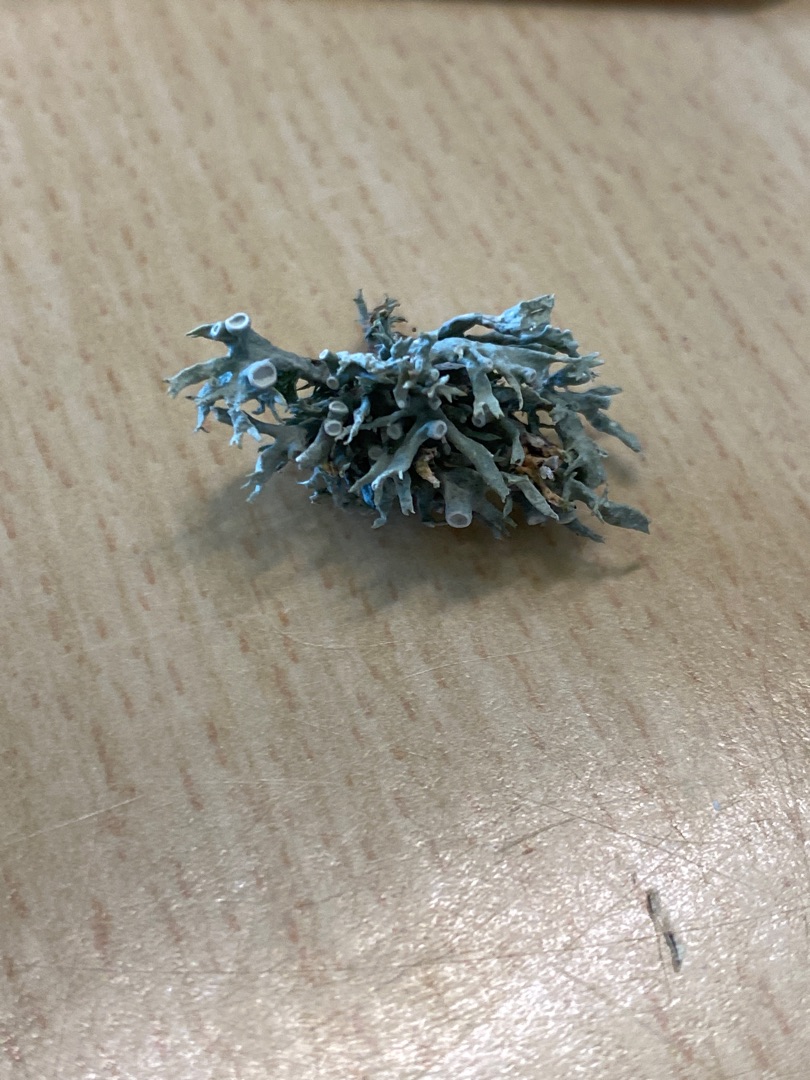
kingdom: Fungi
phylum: Ascomycota
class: Lecanoromycetes
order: Lecanorales
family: Ramalinaceae
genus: Ramalina
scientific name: Ramalina fastigiata
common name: Tue-grenlav
